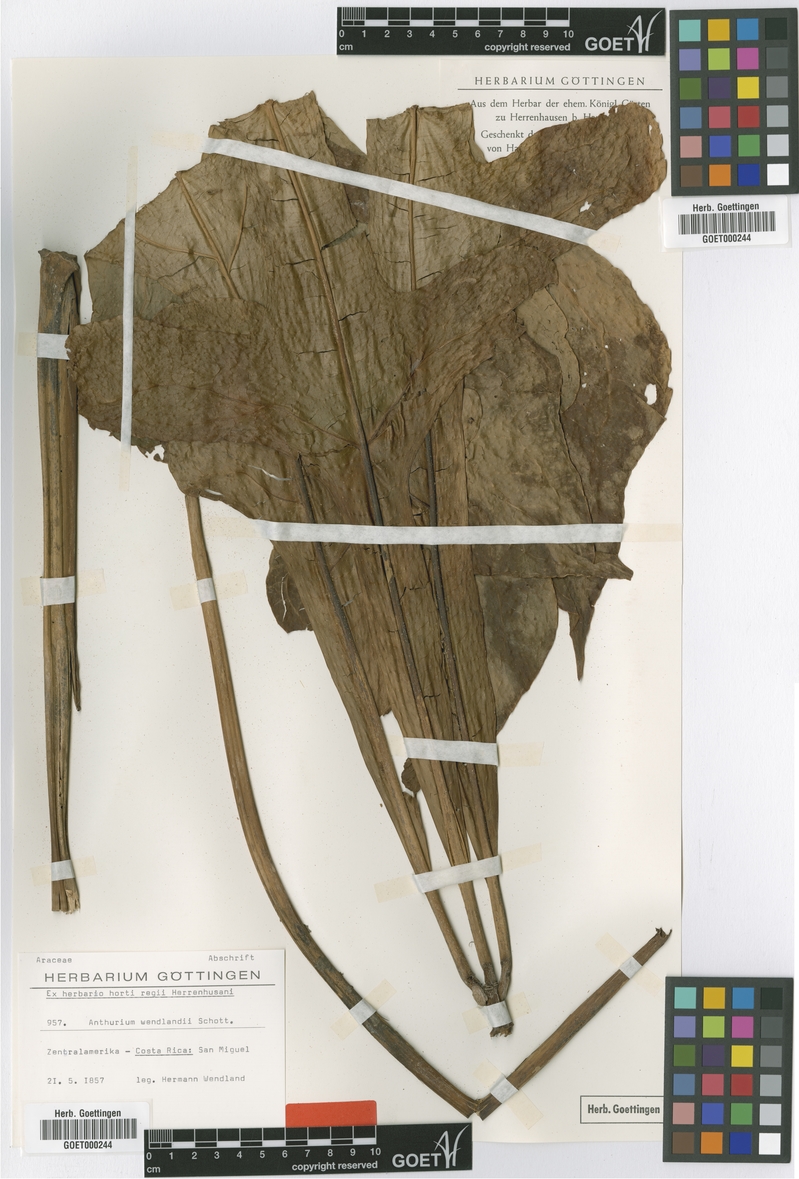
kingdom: Plantae
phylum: Tracheophyta
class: Liliopsida
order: Alismatales
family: Araceae
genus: Anthurium
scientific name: Anthurium clavigerum
